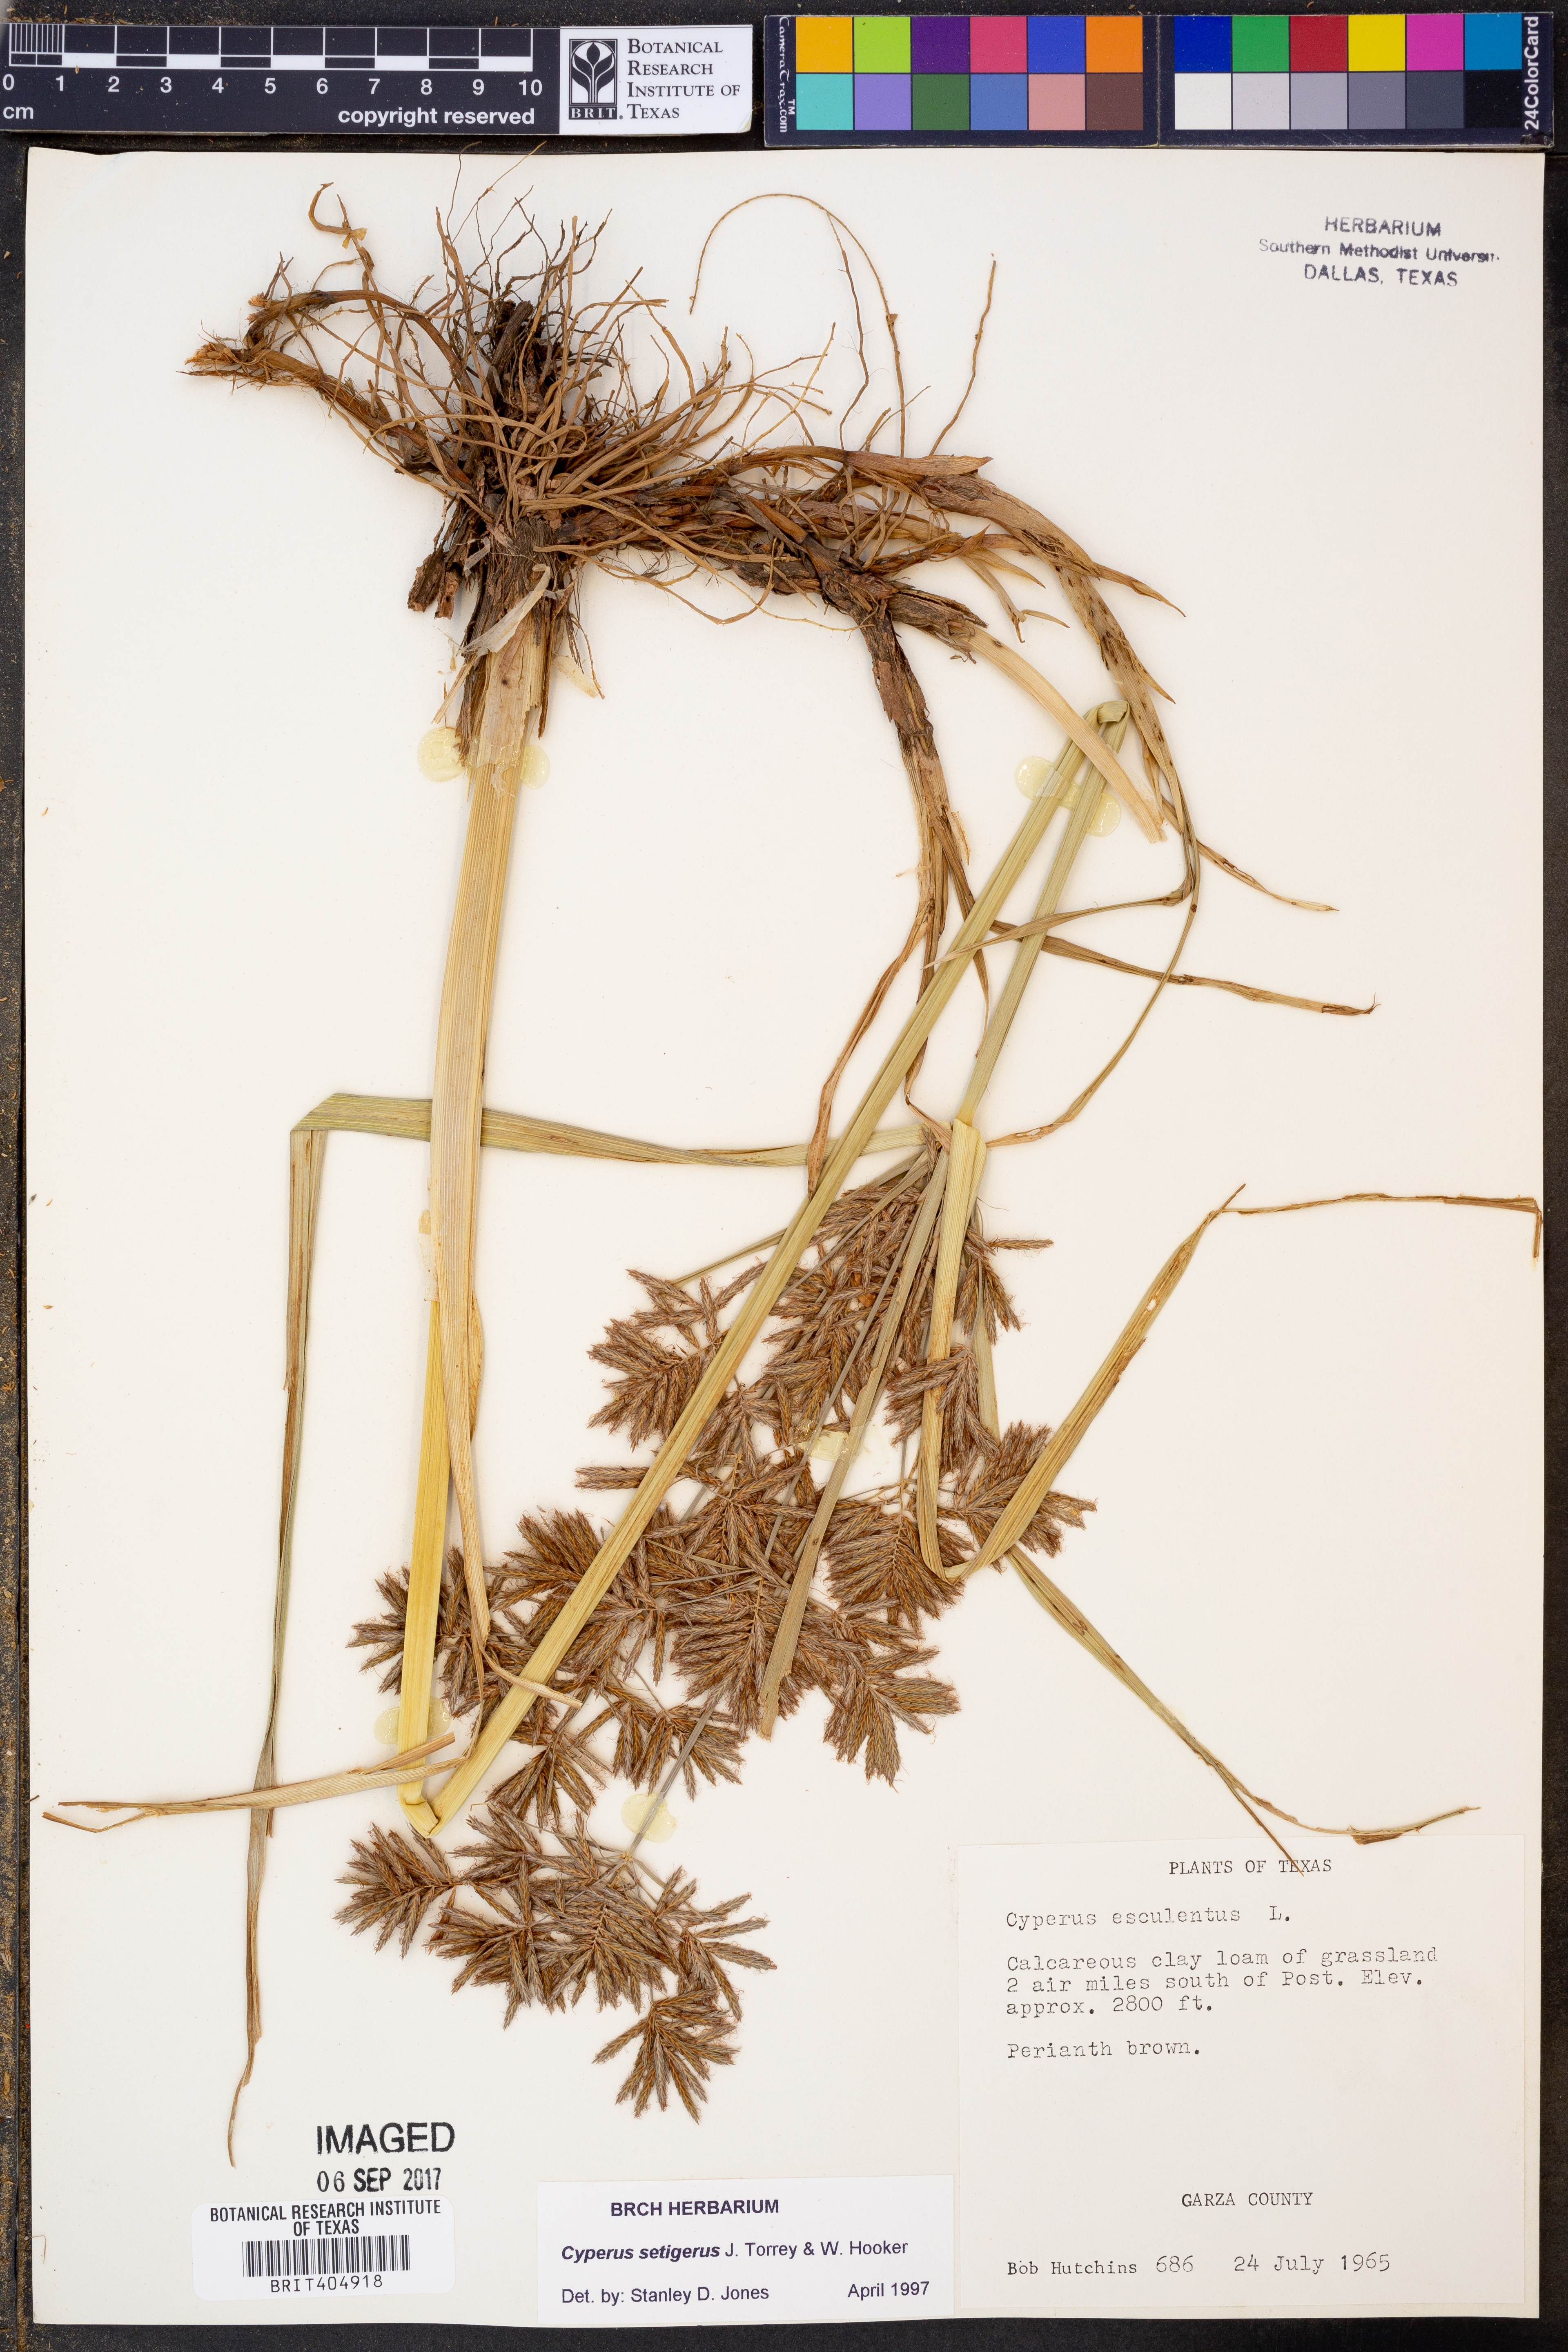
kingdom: Plantae
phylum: Tracheophyta
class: Liliopsida
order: Poales
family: Cyperaceae
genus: Cyperus
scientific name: Cyperus setigerus
